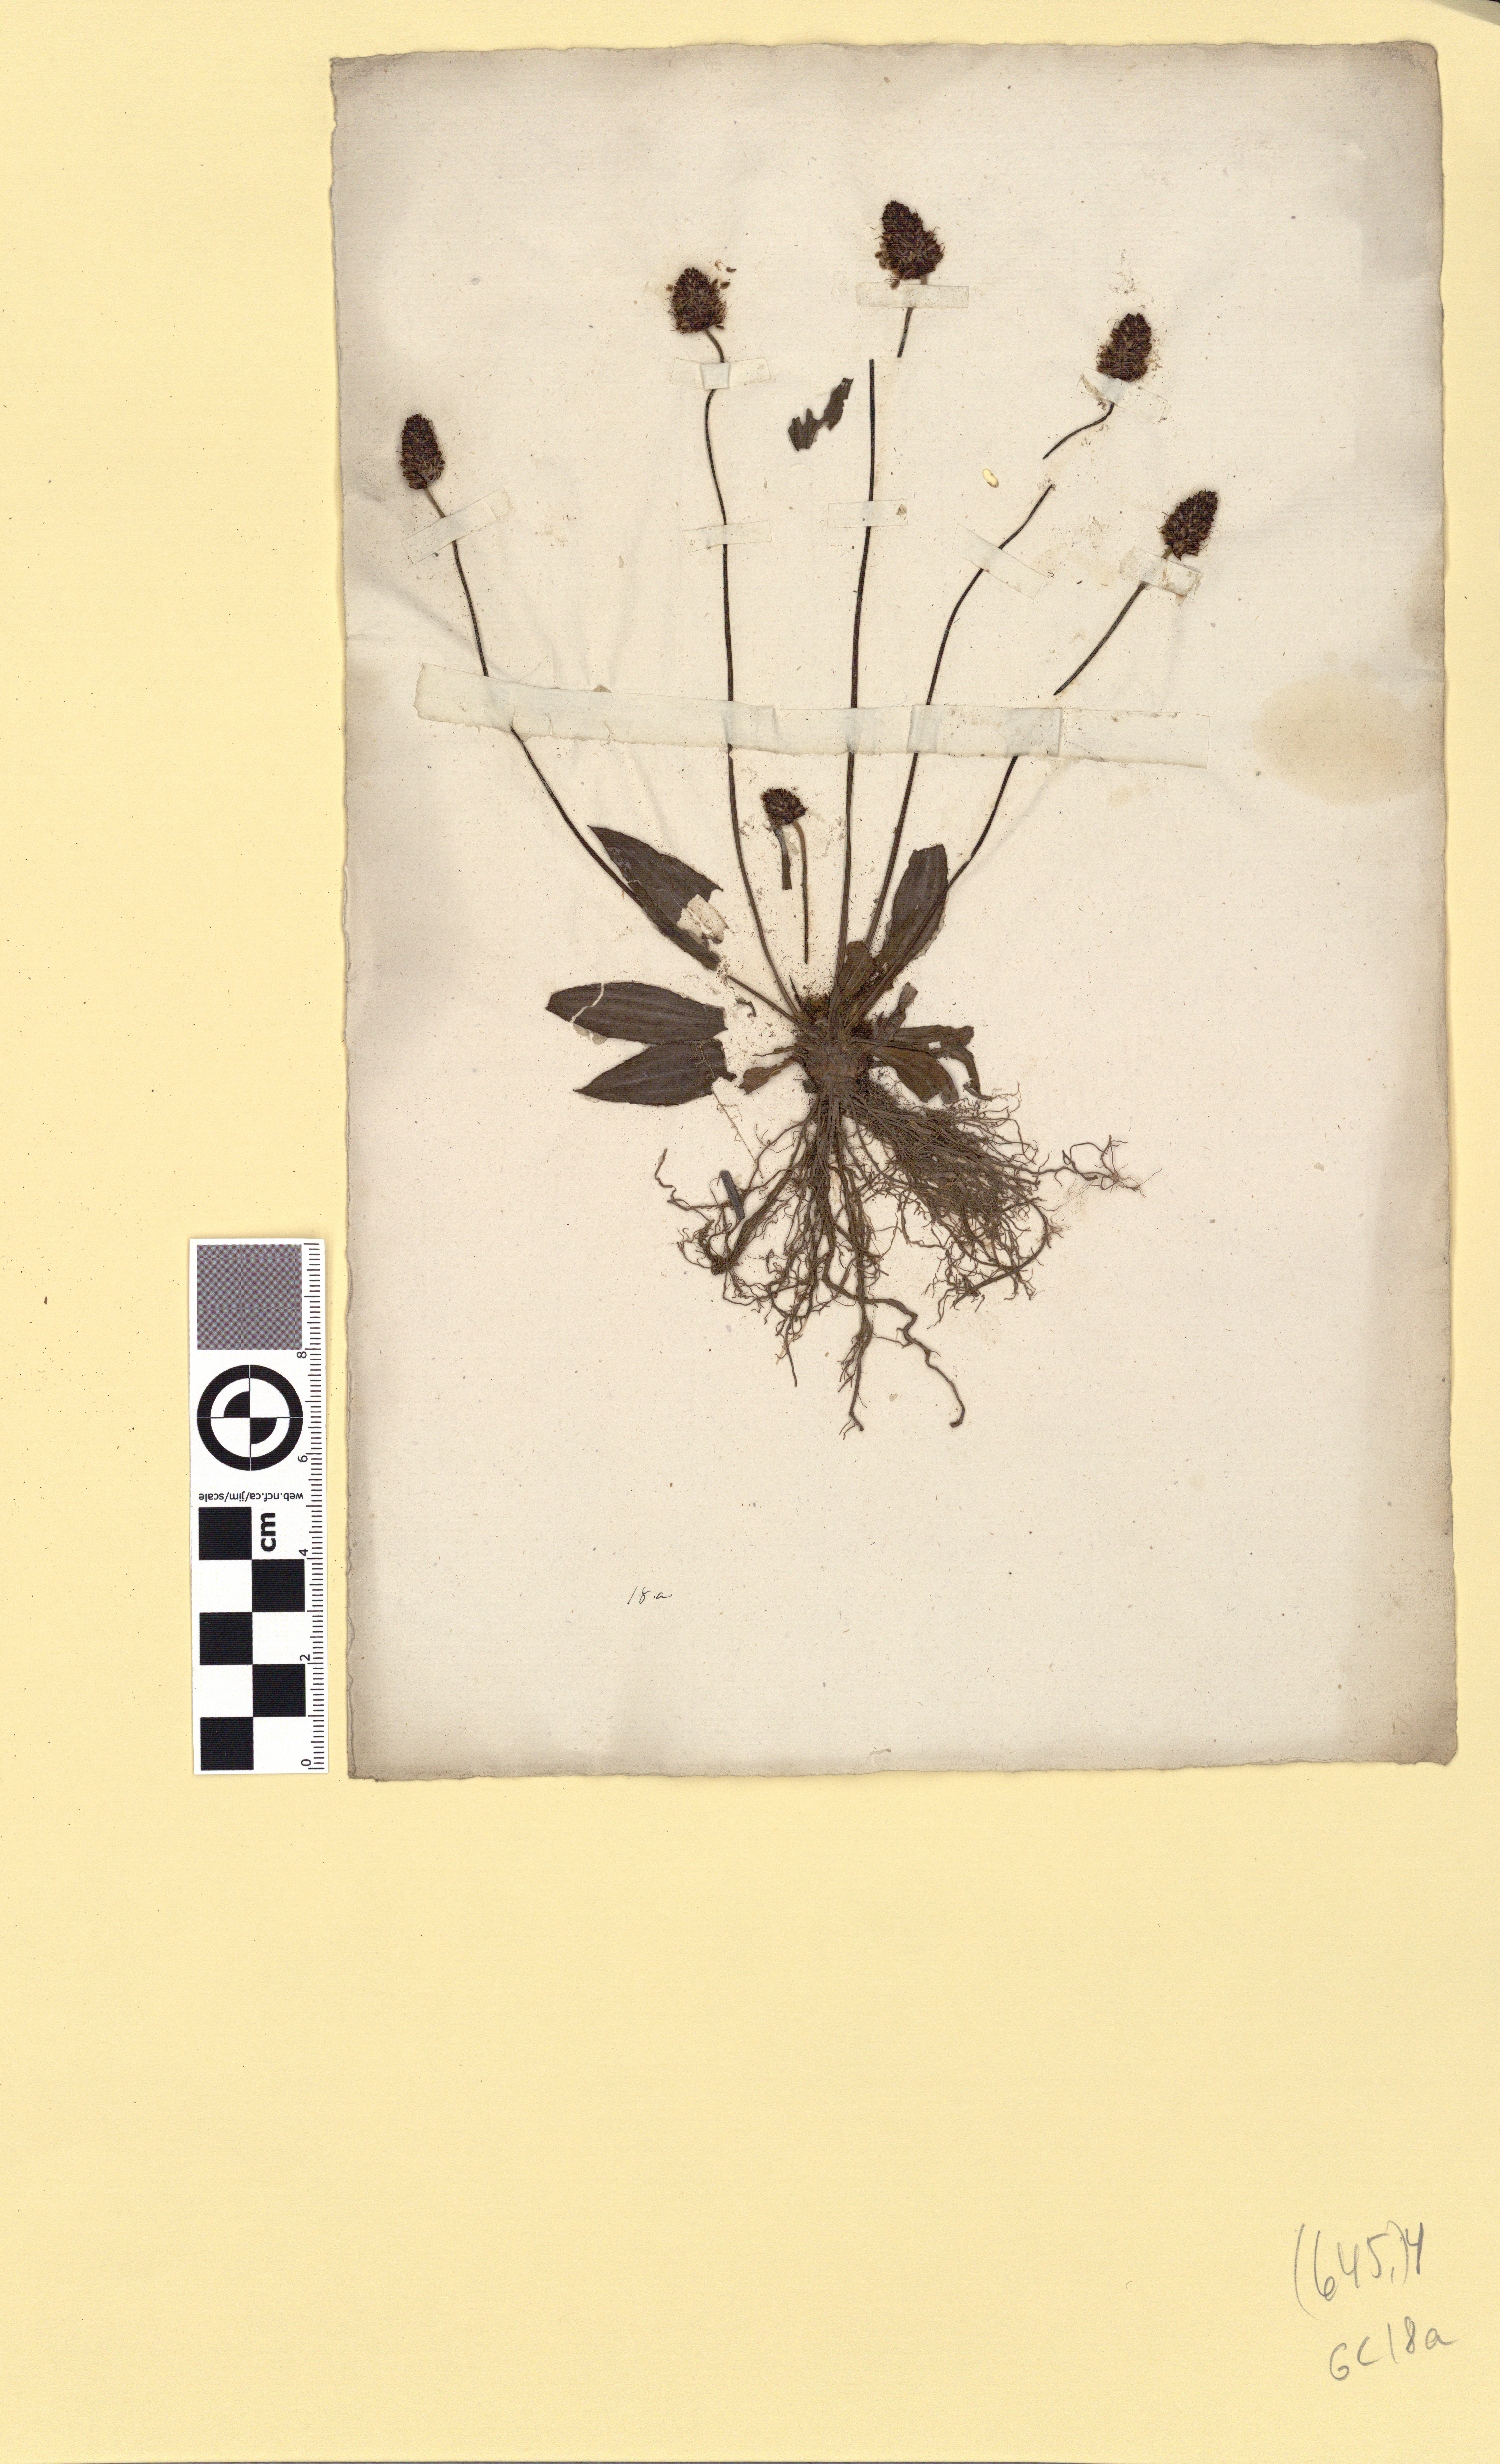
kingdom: Plantae
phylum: Tracheophyta
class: Magnoliopsida
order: Lamiales
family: Plantaginaceae
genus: Plantago
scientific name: Plantago lanceolata
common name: Ribwort plantain
